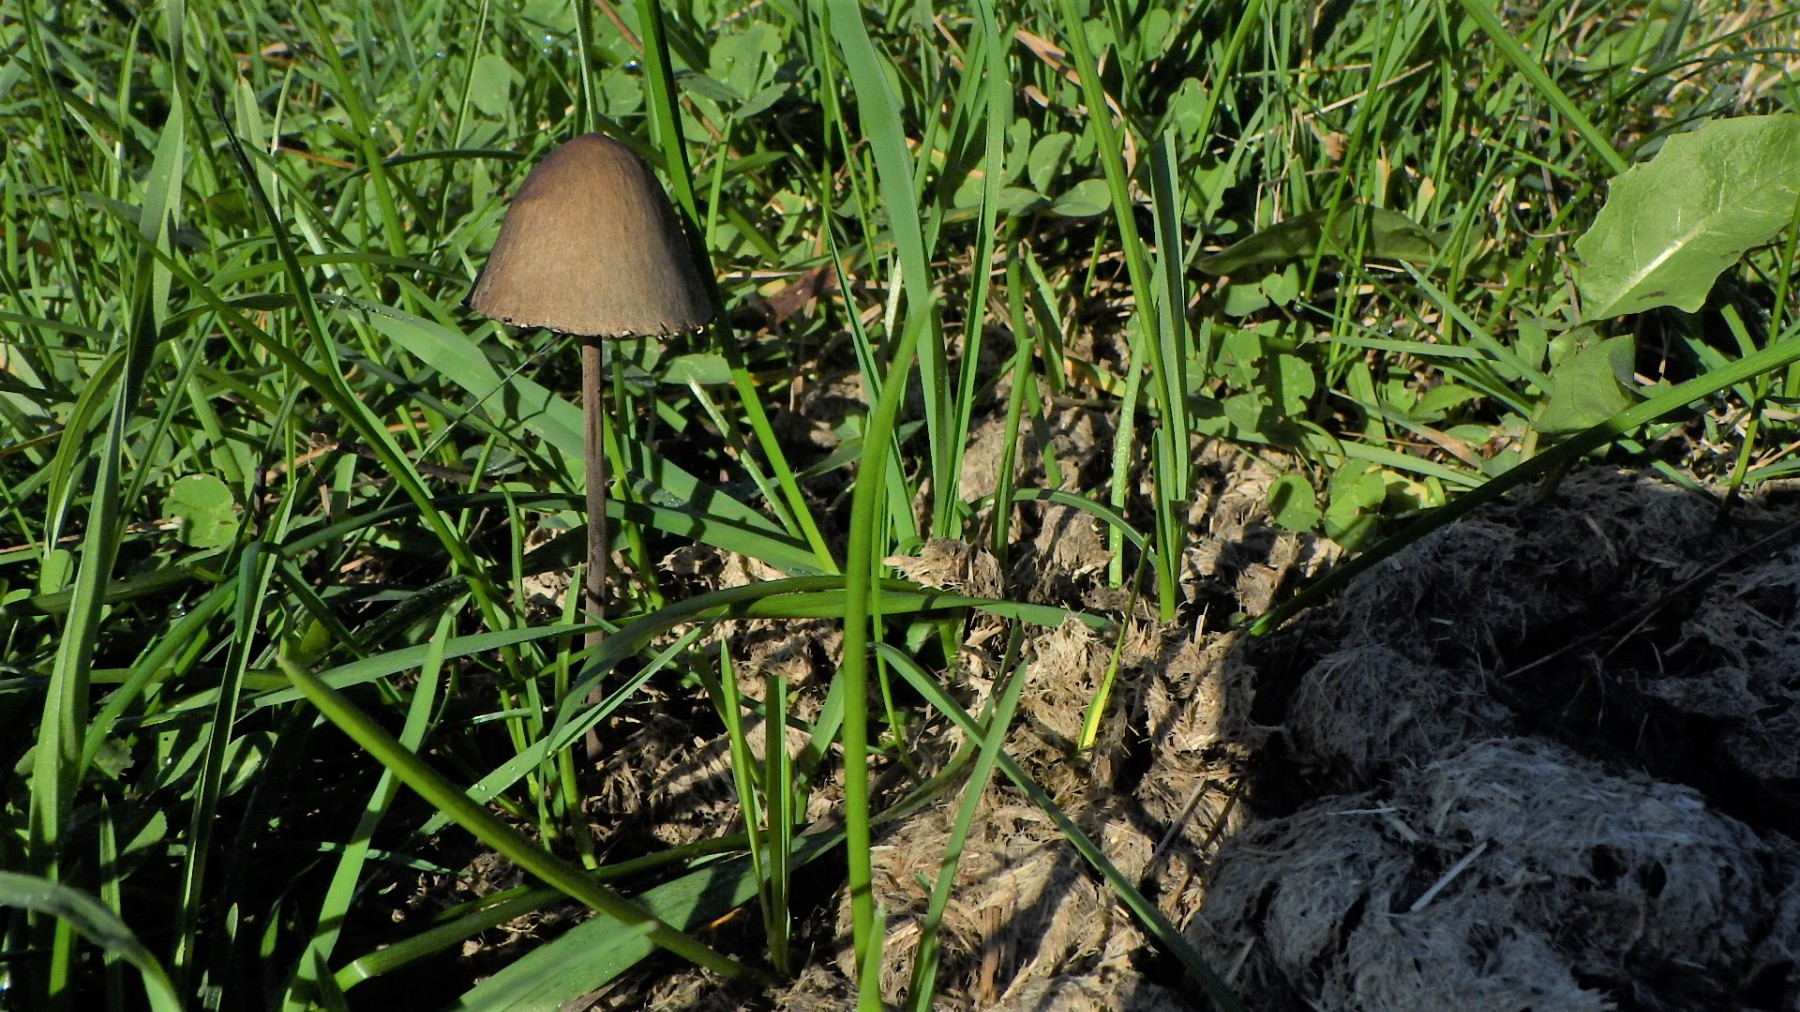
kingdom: Fungi
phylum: Basidiomycota
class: Agaricomycetes
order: Agaricales
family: Bolbitiaceae
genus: Panaeolus
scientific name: Panaeolus papilionaceus
